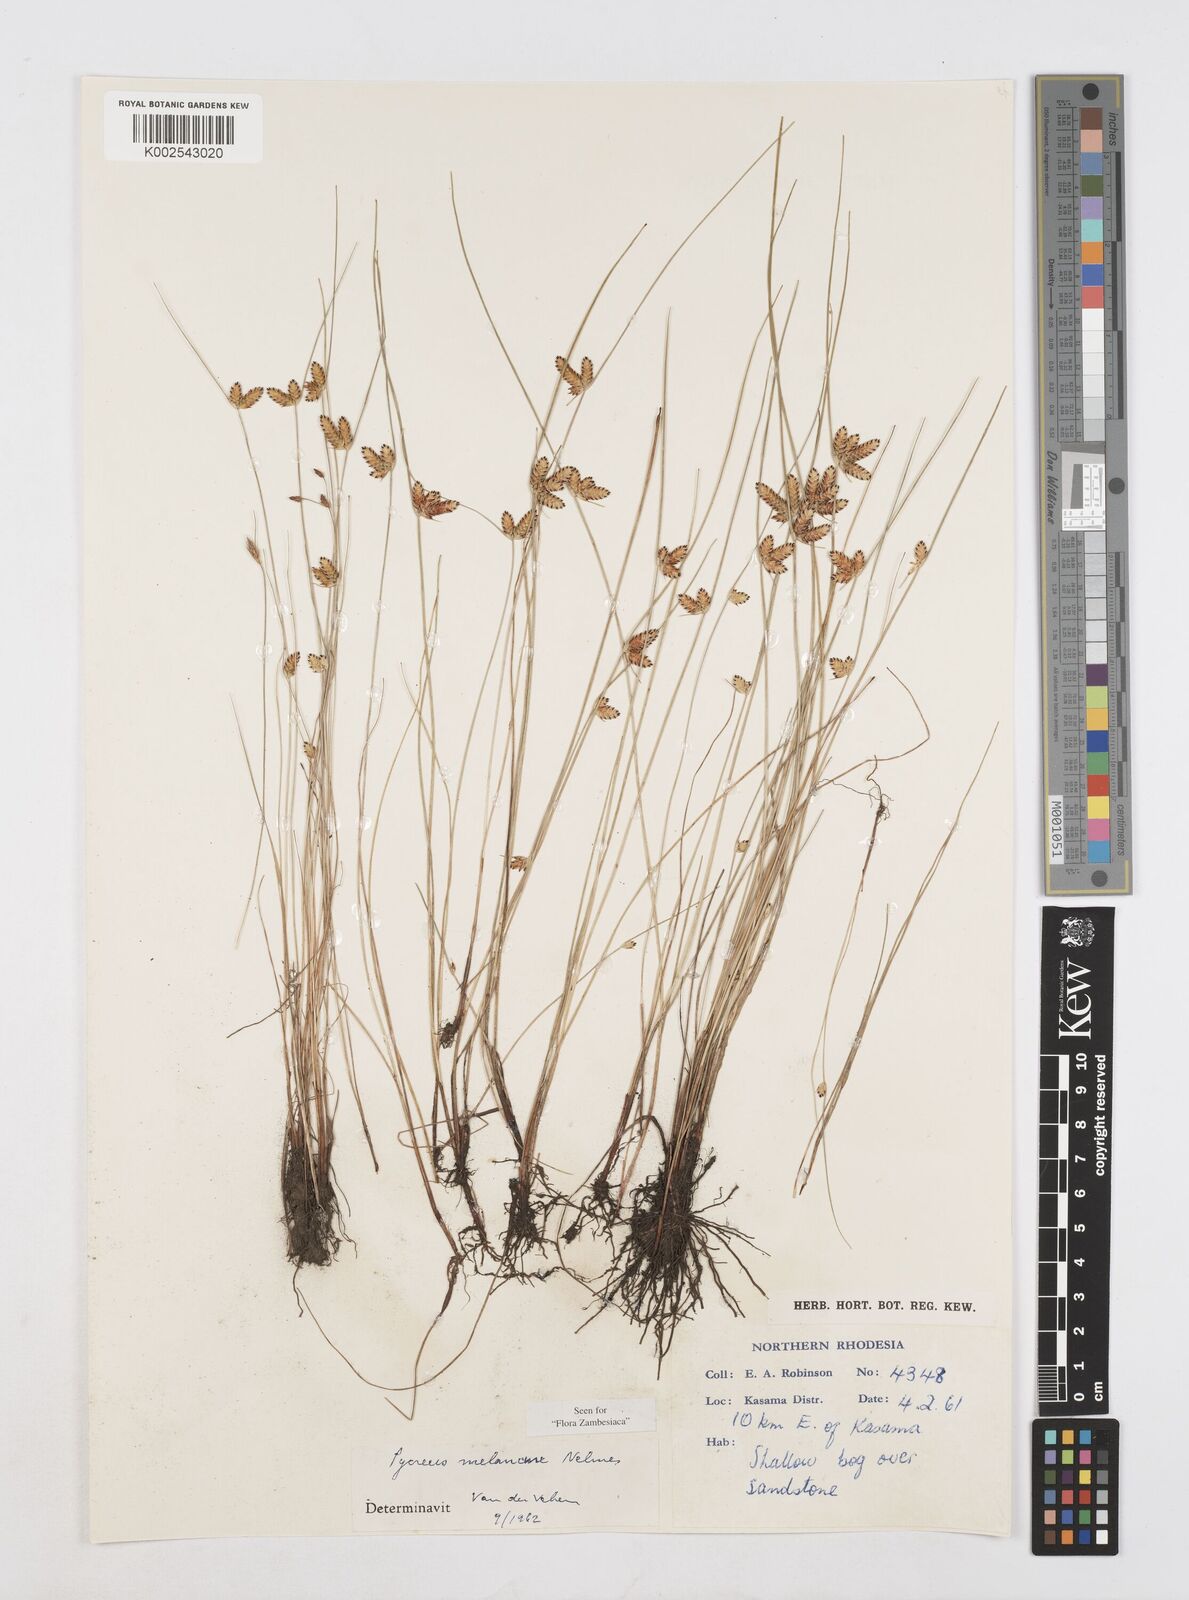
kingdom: Plantae
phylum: Tracheophyta
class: Liliopsida
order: Poales
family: Cyperaceae
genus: Cyperus
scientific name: Cyperus melanacme
